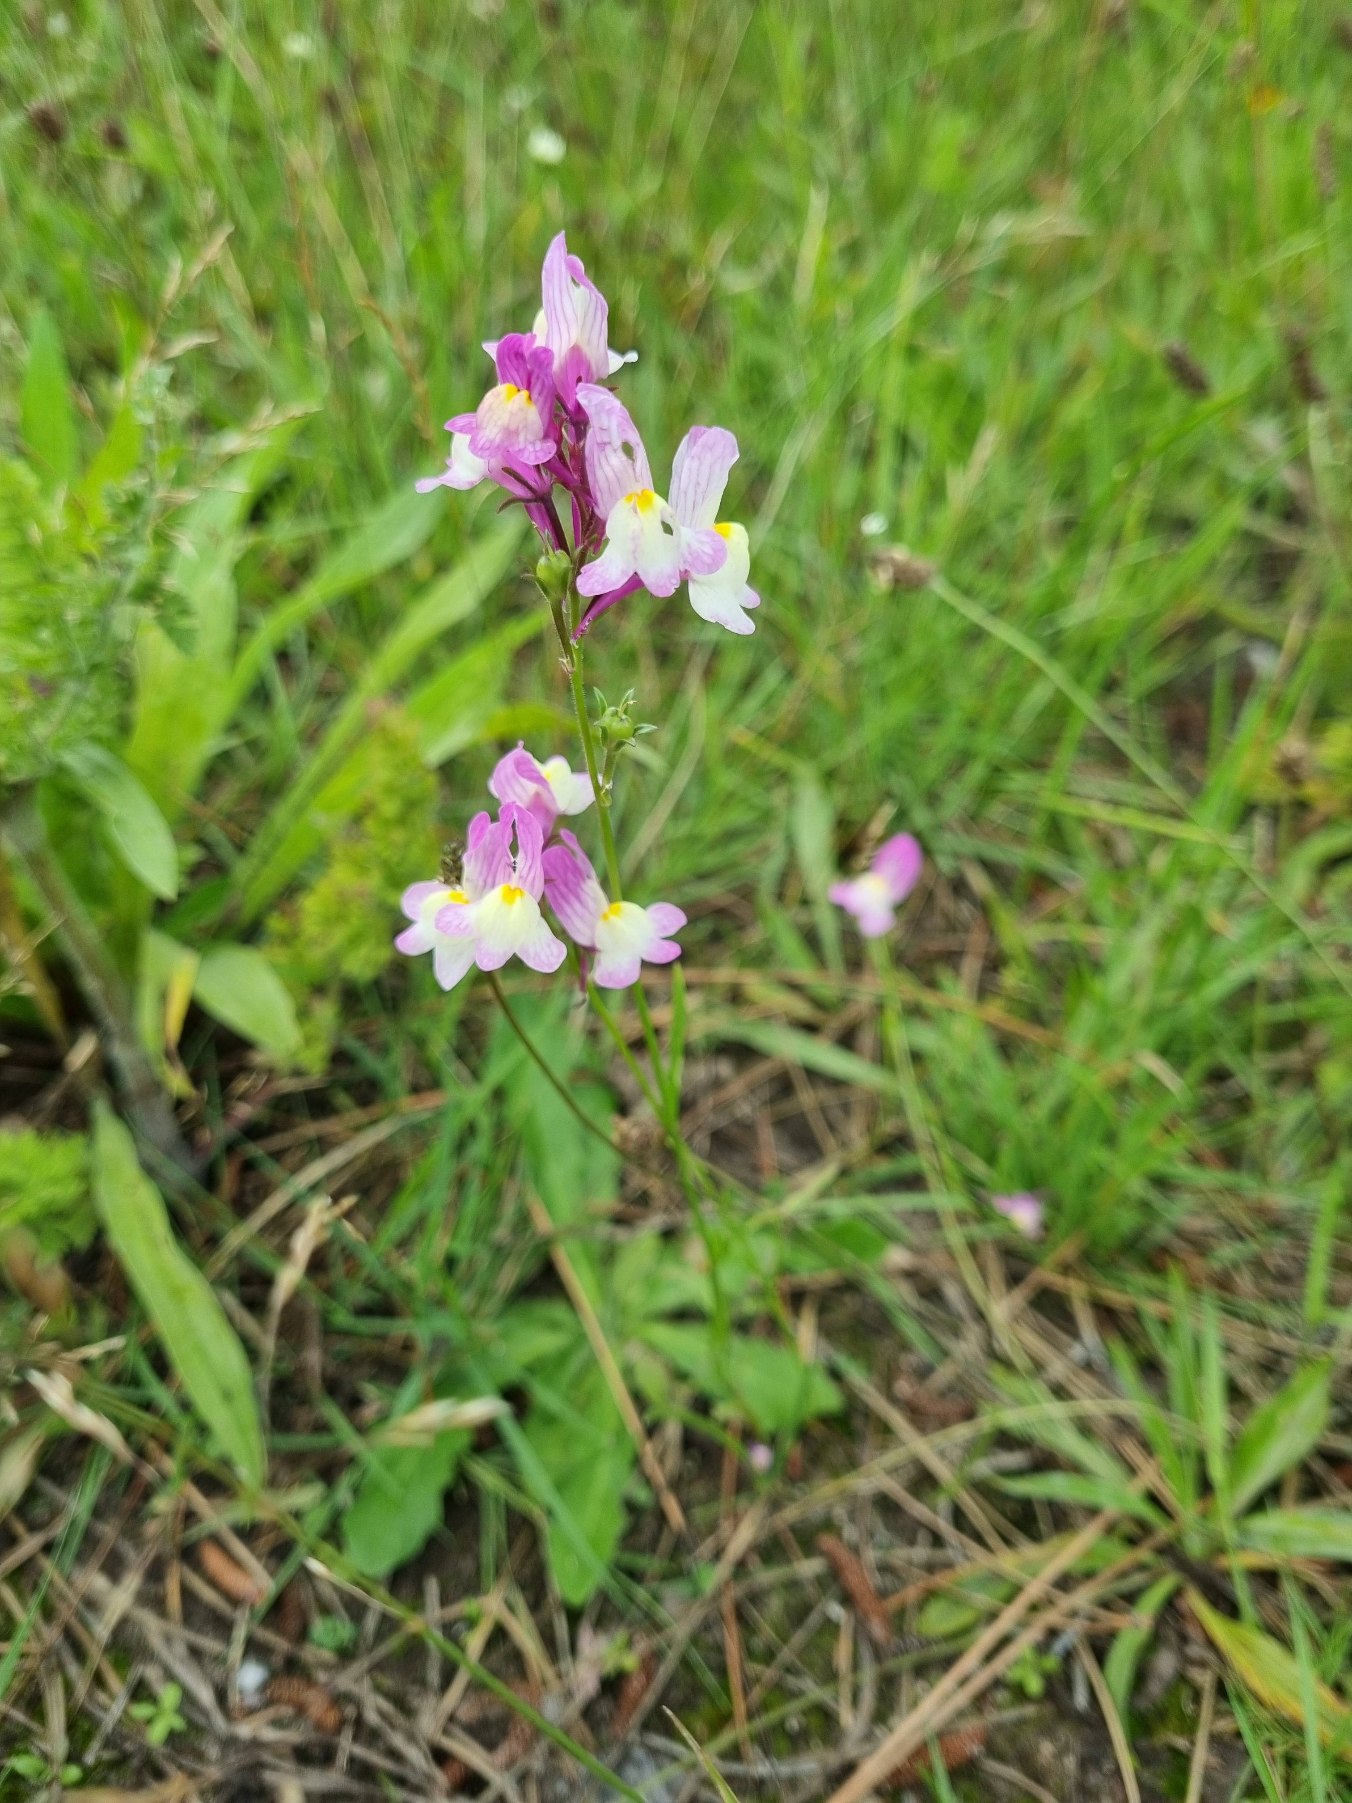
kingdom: Plantae
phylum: Tracheophyta
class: Magnoliopsida
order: Lamiales
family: Plantaginaceae
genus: Linaria
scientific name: Linaria maroccana
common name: Marokkansk torskemund
